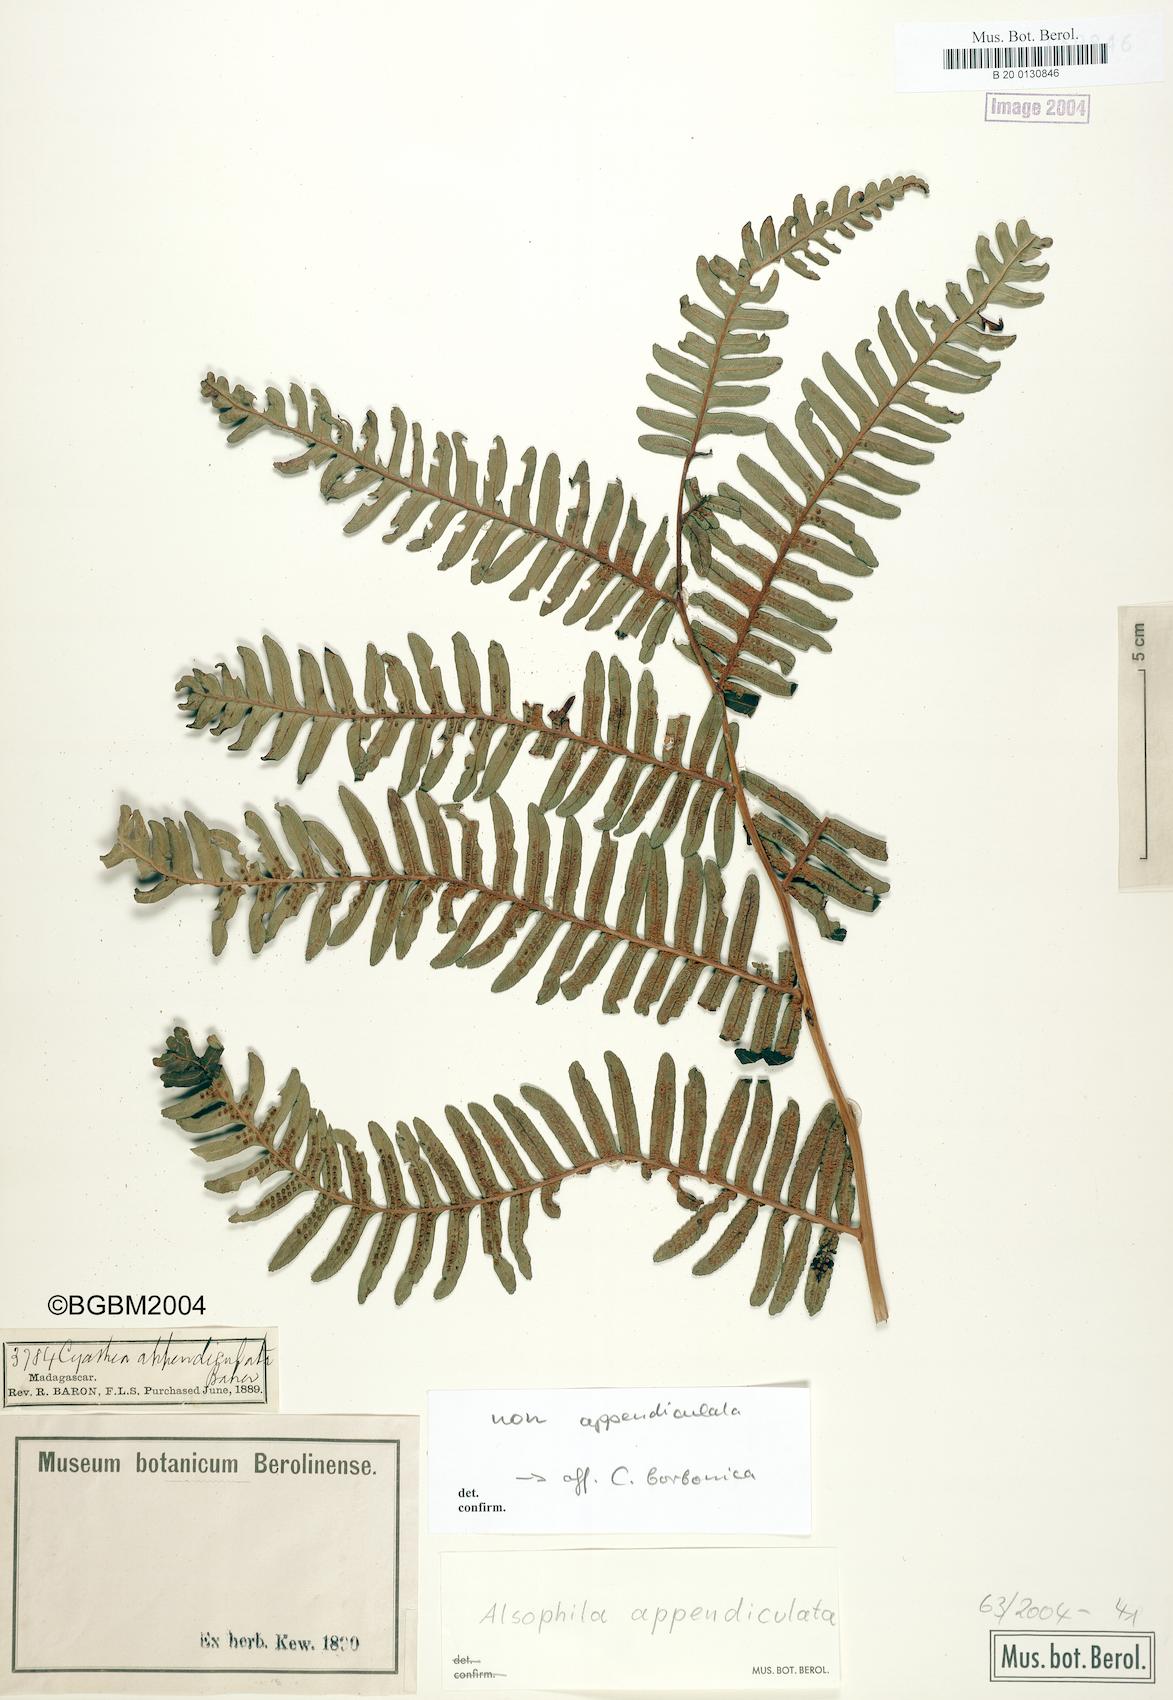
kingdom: Plantae
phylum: Tracheophyta
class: Polypodiopsida
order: Cyatheales
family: Cyatheaceae
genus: Alsophila
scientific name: Alsophila appendiculata
